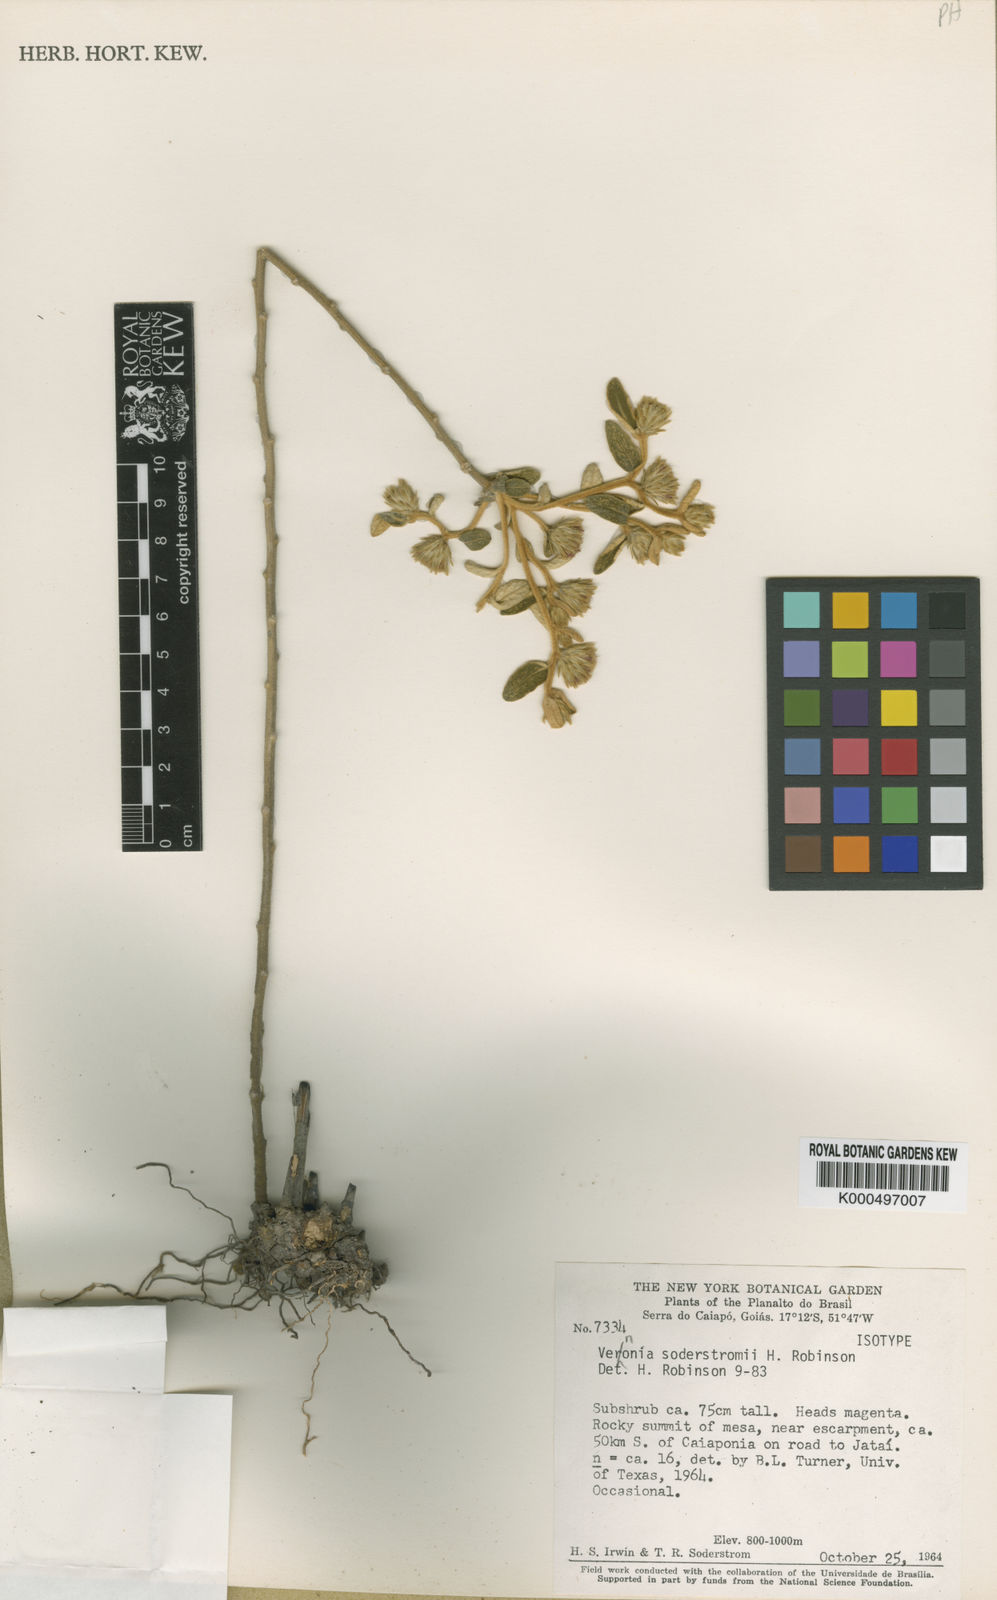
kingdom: Plantae
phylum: Tracheophyta
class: Magnoliopsida
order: Asterales
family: Asteraceae
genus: Lessingianthus
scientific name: Lessingianthus soderstroemii
